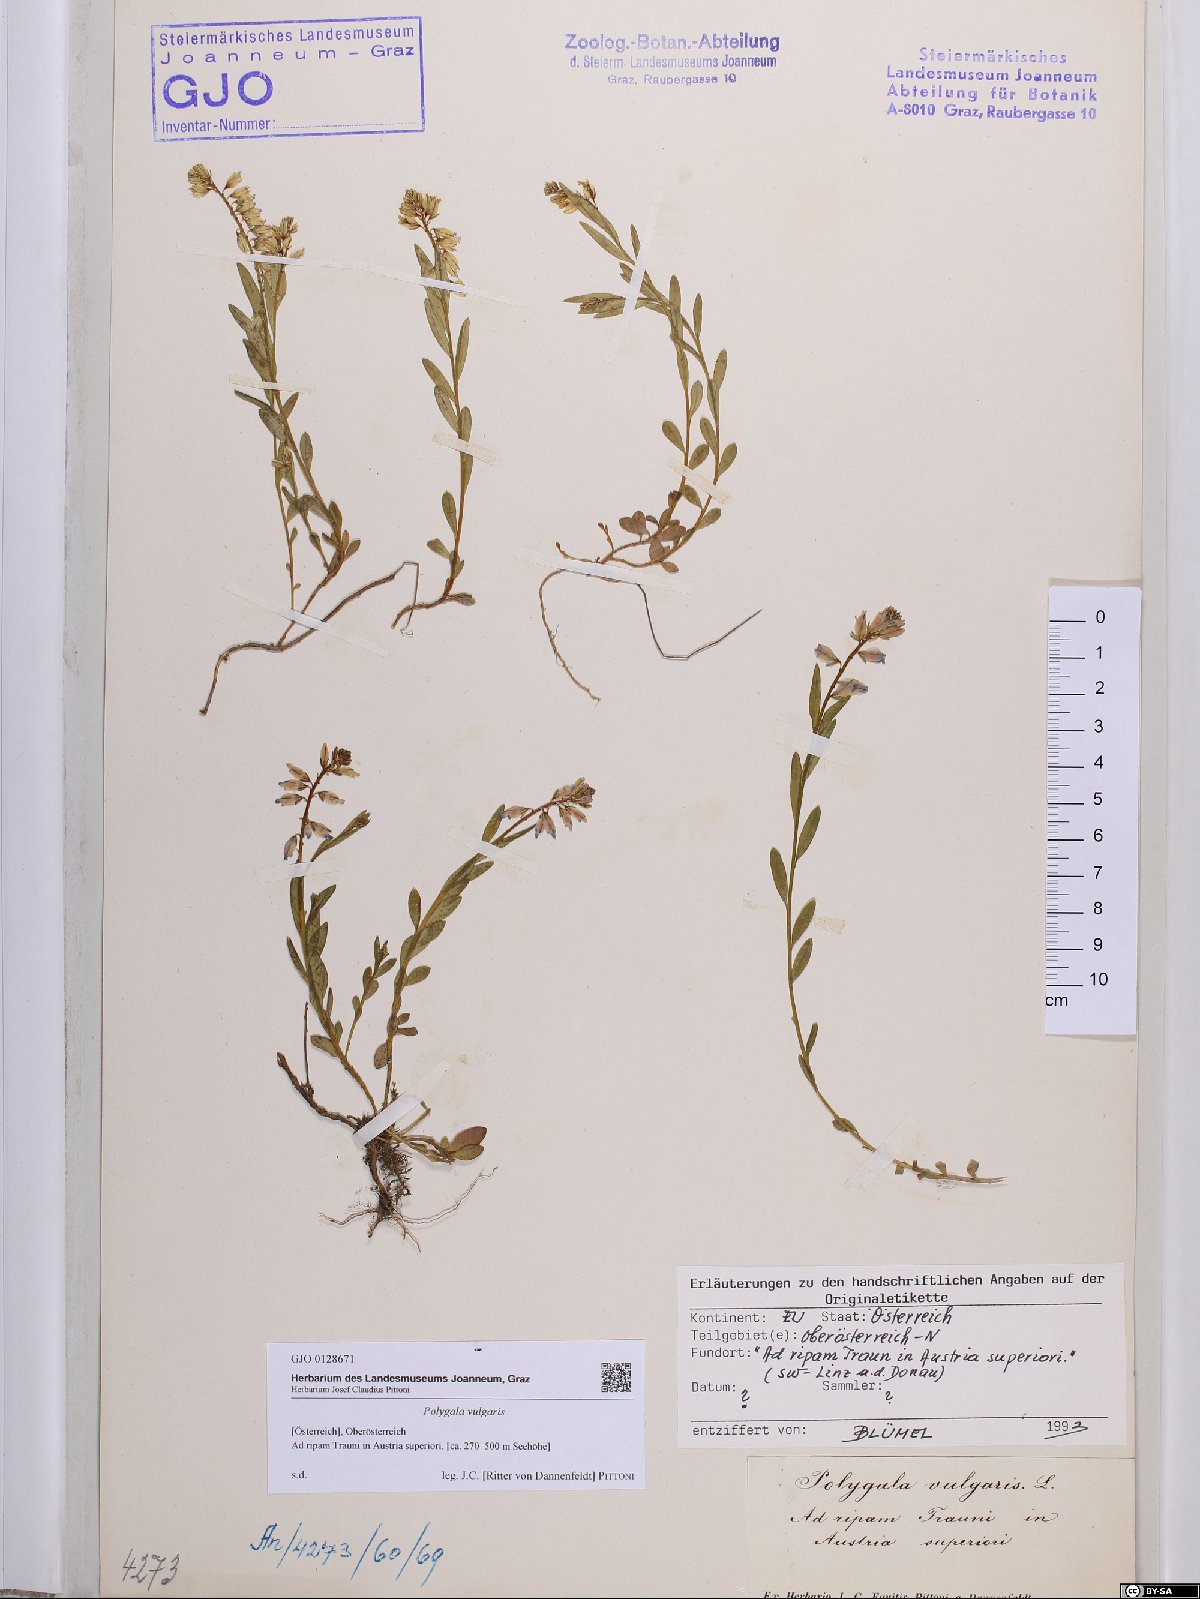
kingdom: Plantae
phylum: Tracheophyta
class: Magnoliopsida
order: Fabales
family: Polygalaceae
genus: Polygala
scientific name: Polygala vulgaris
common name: Common milkwort
